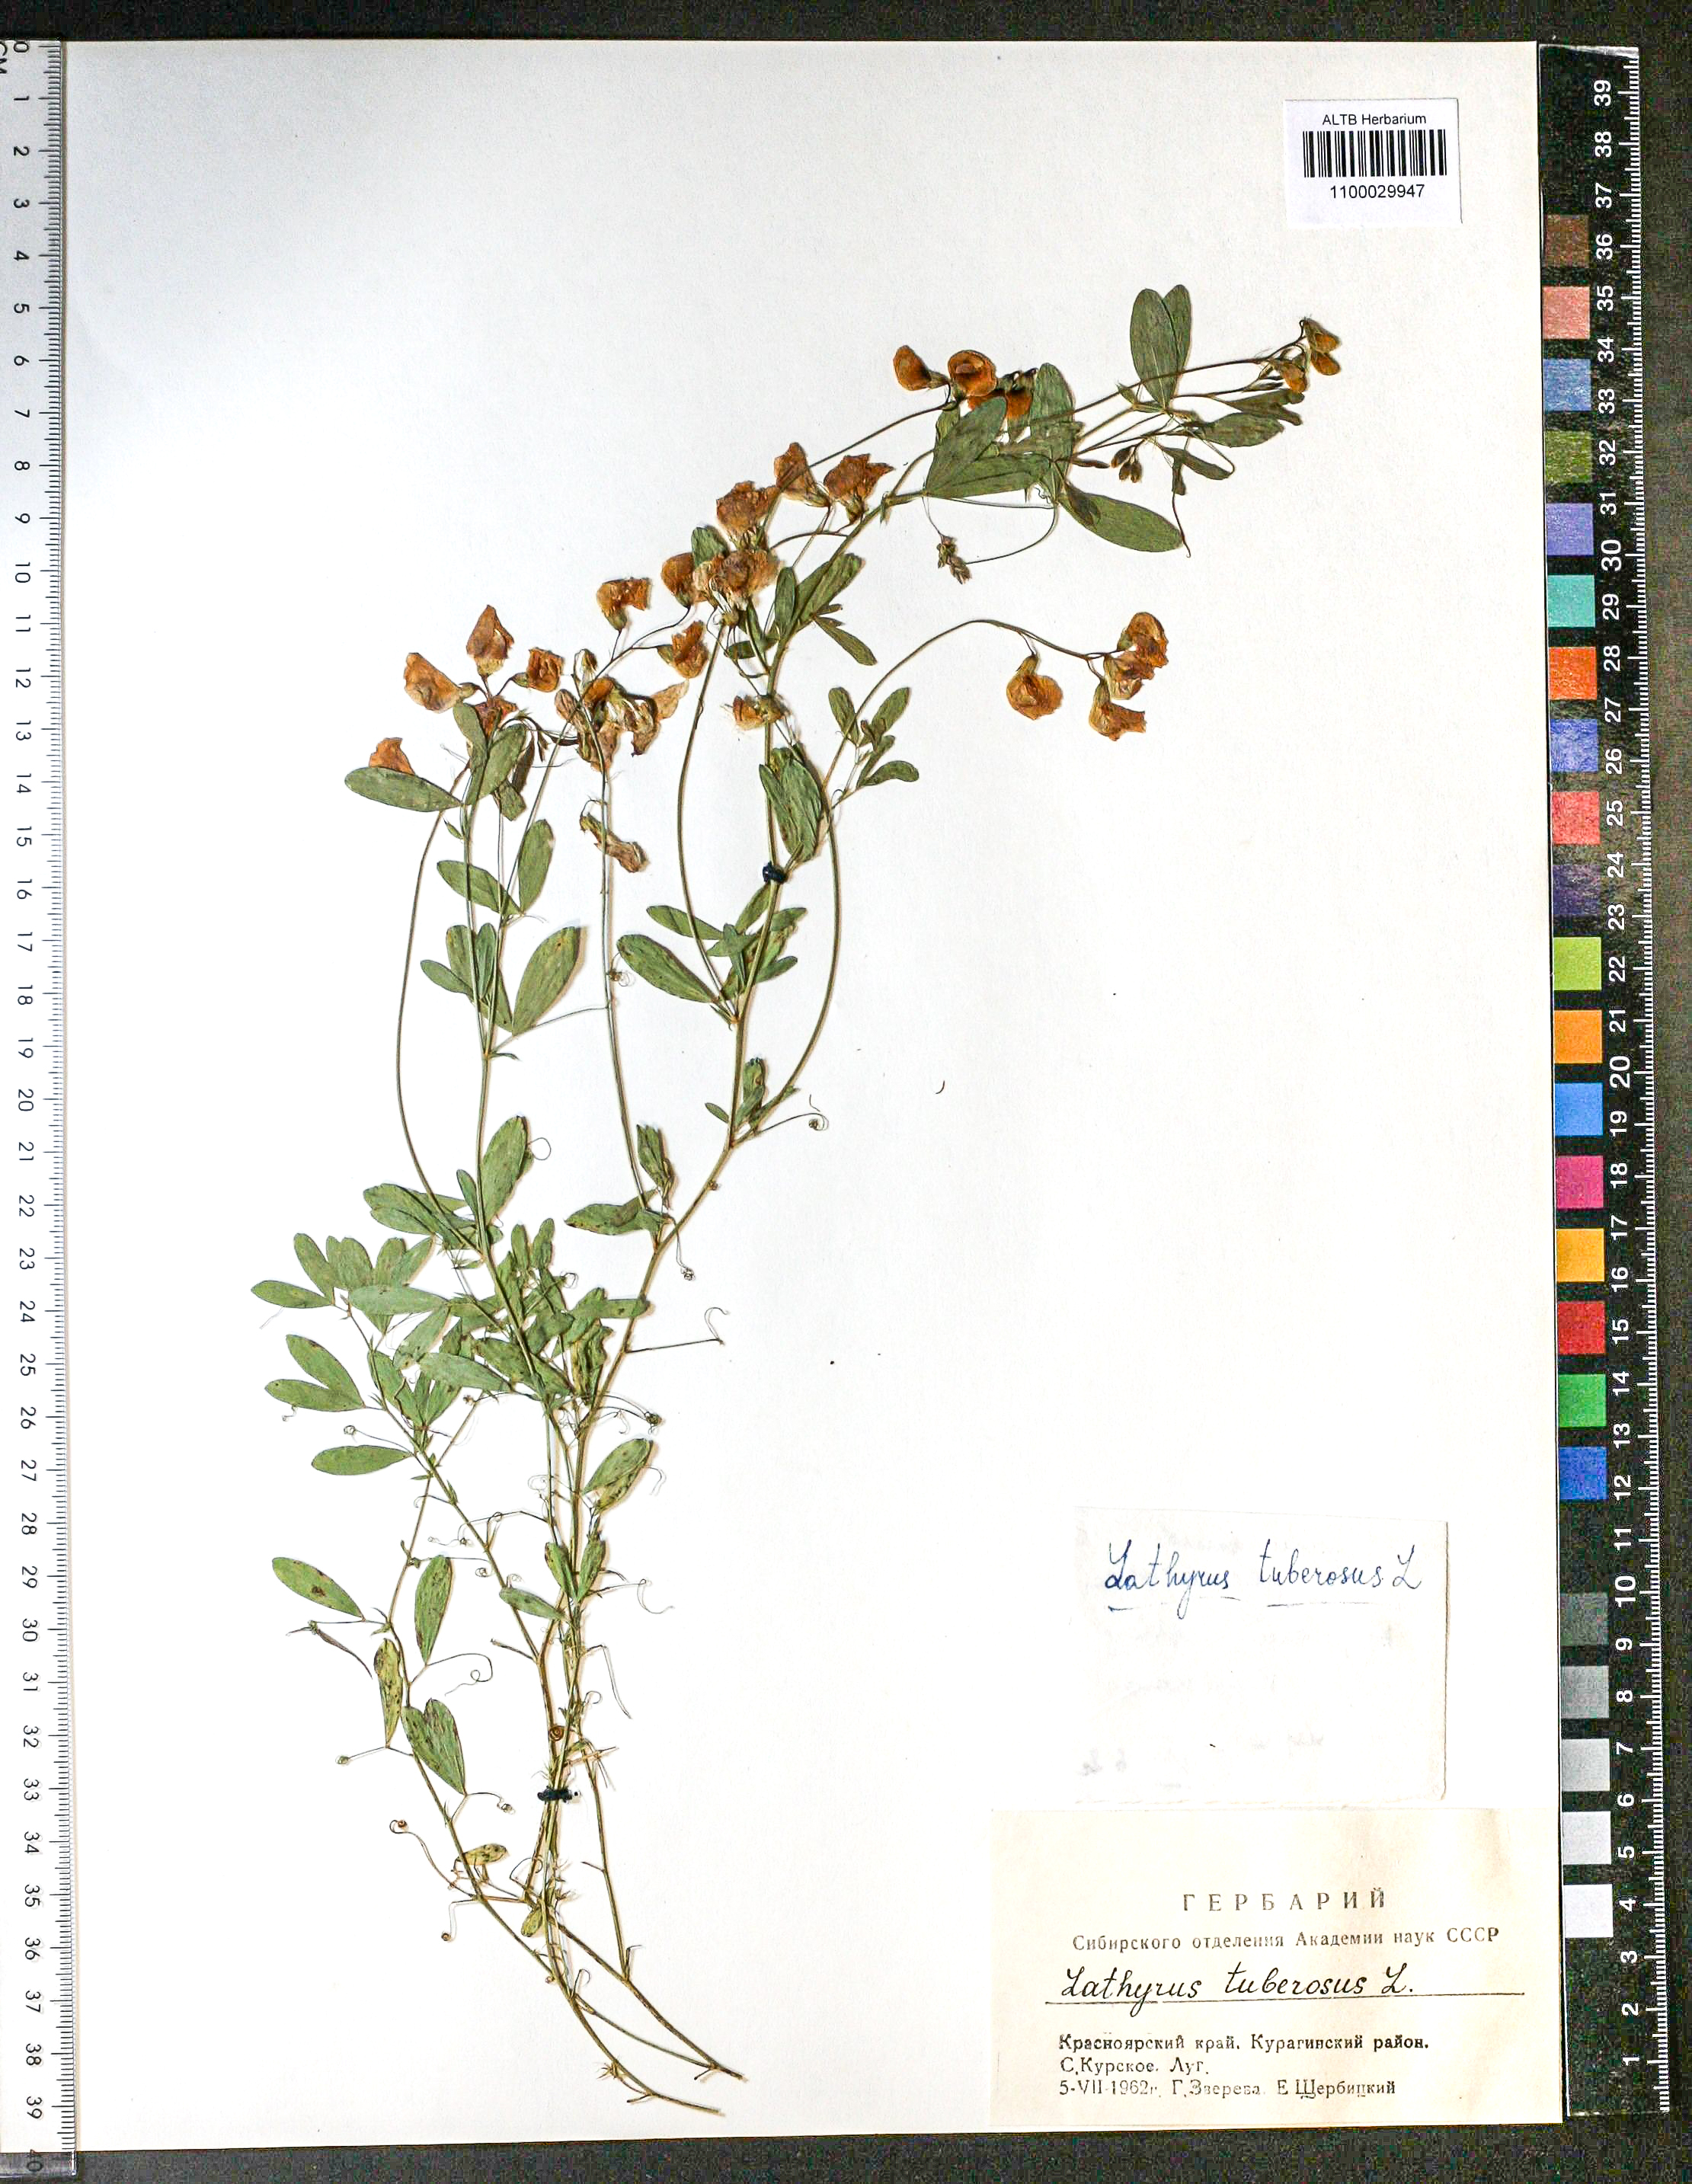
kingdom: Plantae
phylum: Tracheophyta
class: Magnoliopsida
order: Fabales
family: Fabaceae
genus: Lathyrus
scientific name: Lathyrus tuberosus
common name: Tuberous pea
